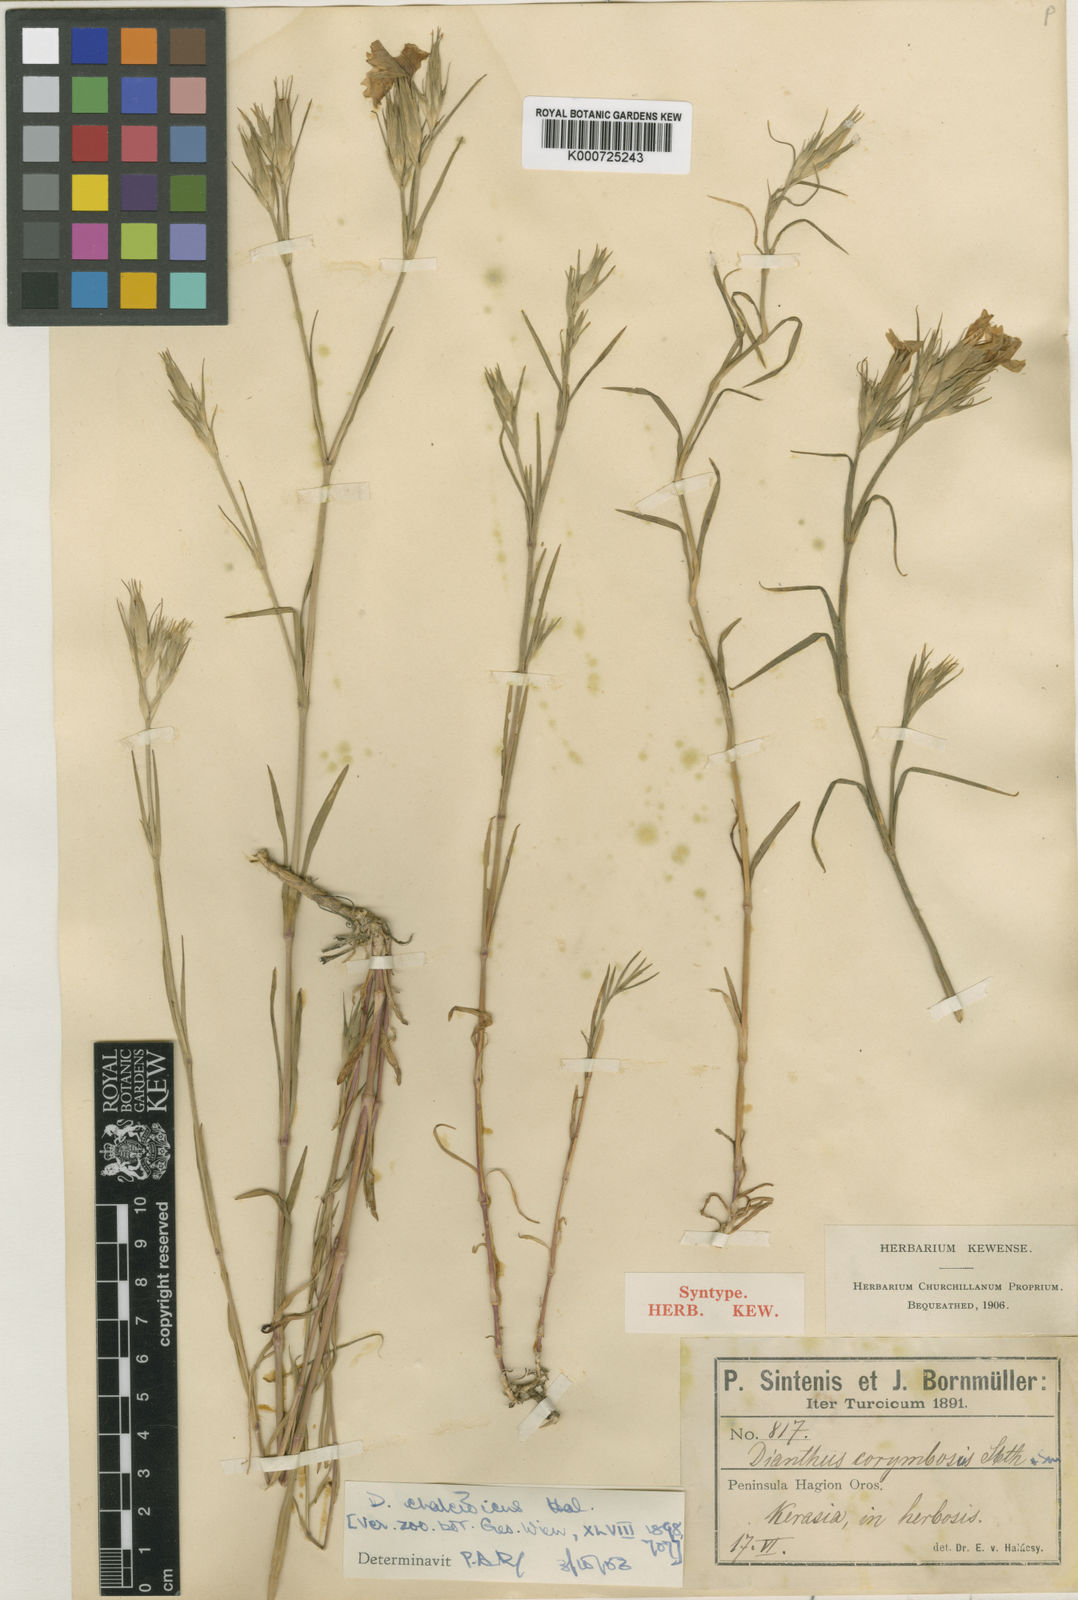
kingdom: Plantae
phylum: Tracheophyta
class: Magnoliopsida
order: Caryophyllales
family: Caryophyllaceae
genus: Dianthus
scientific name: Dianthus corymbosus
